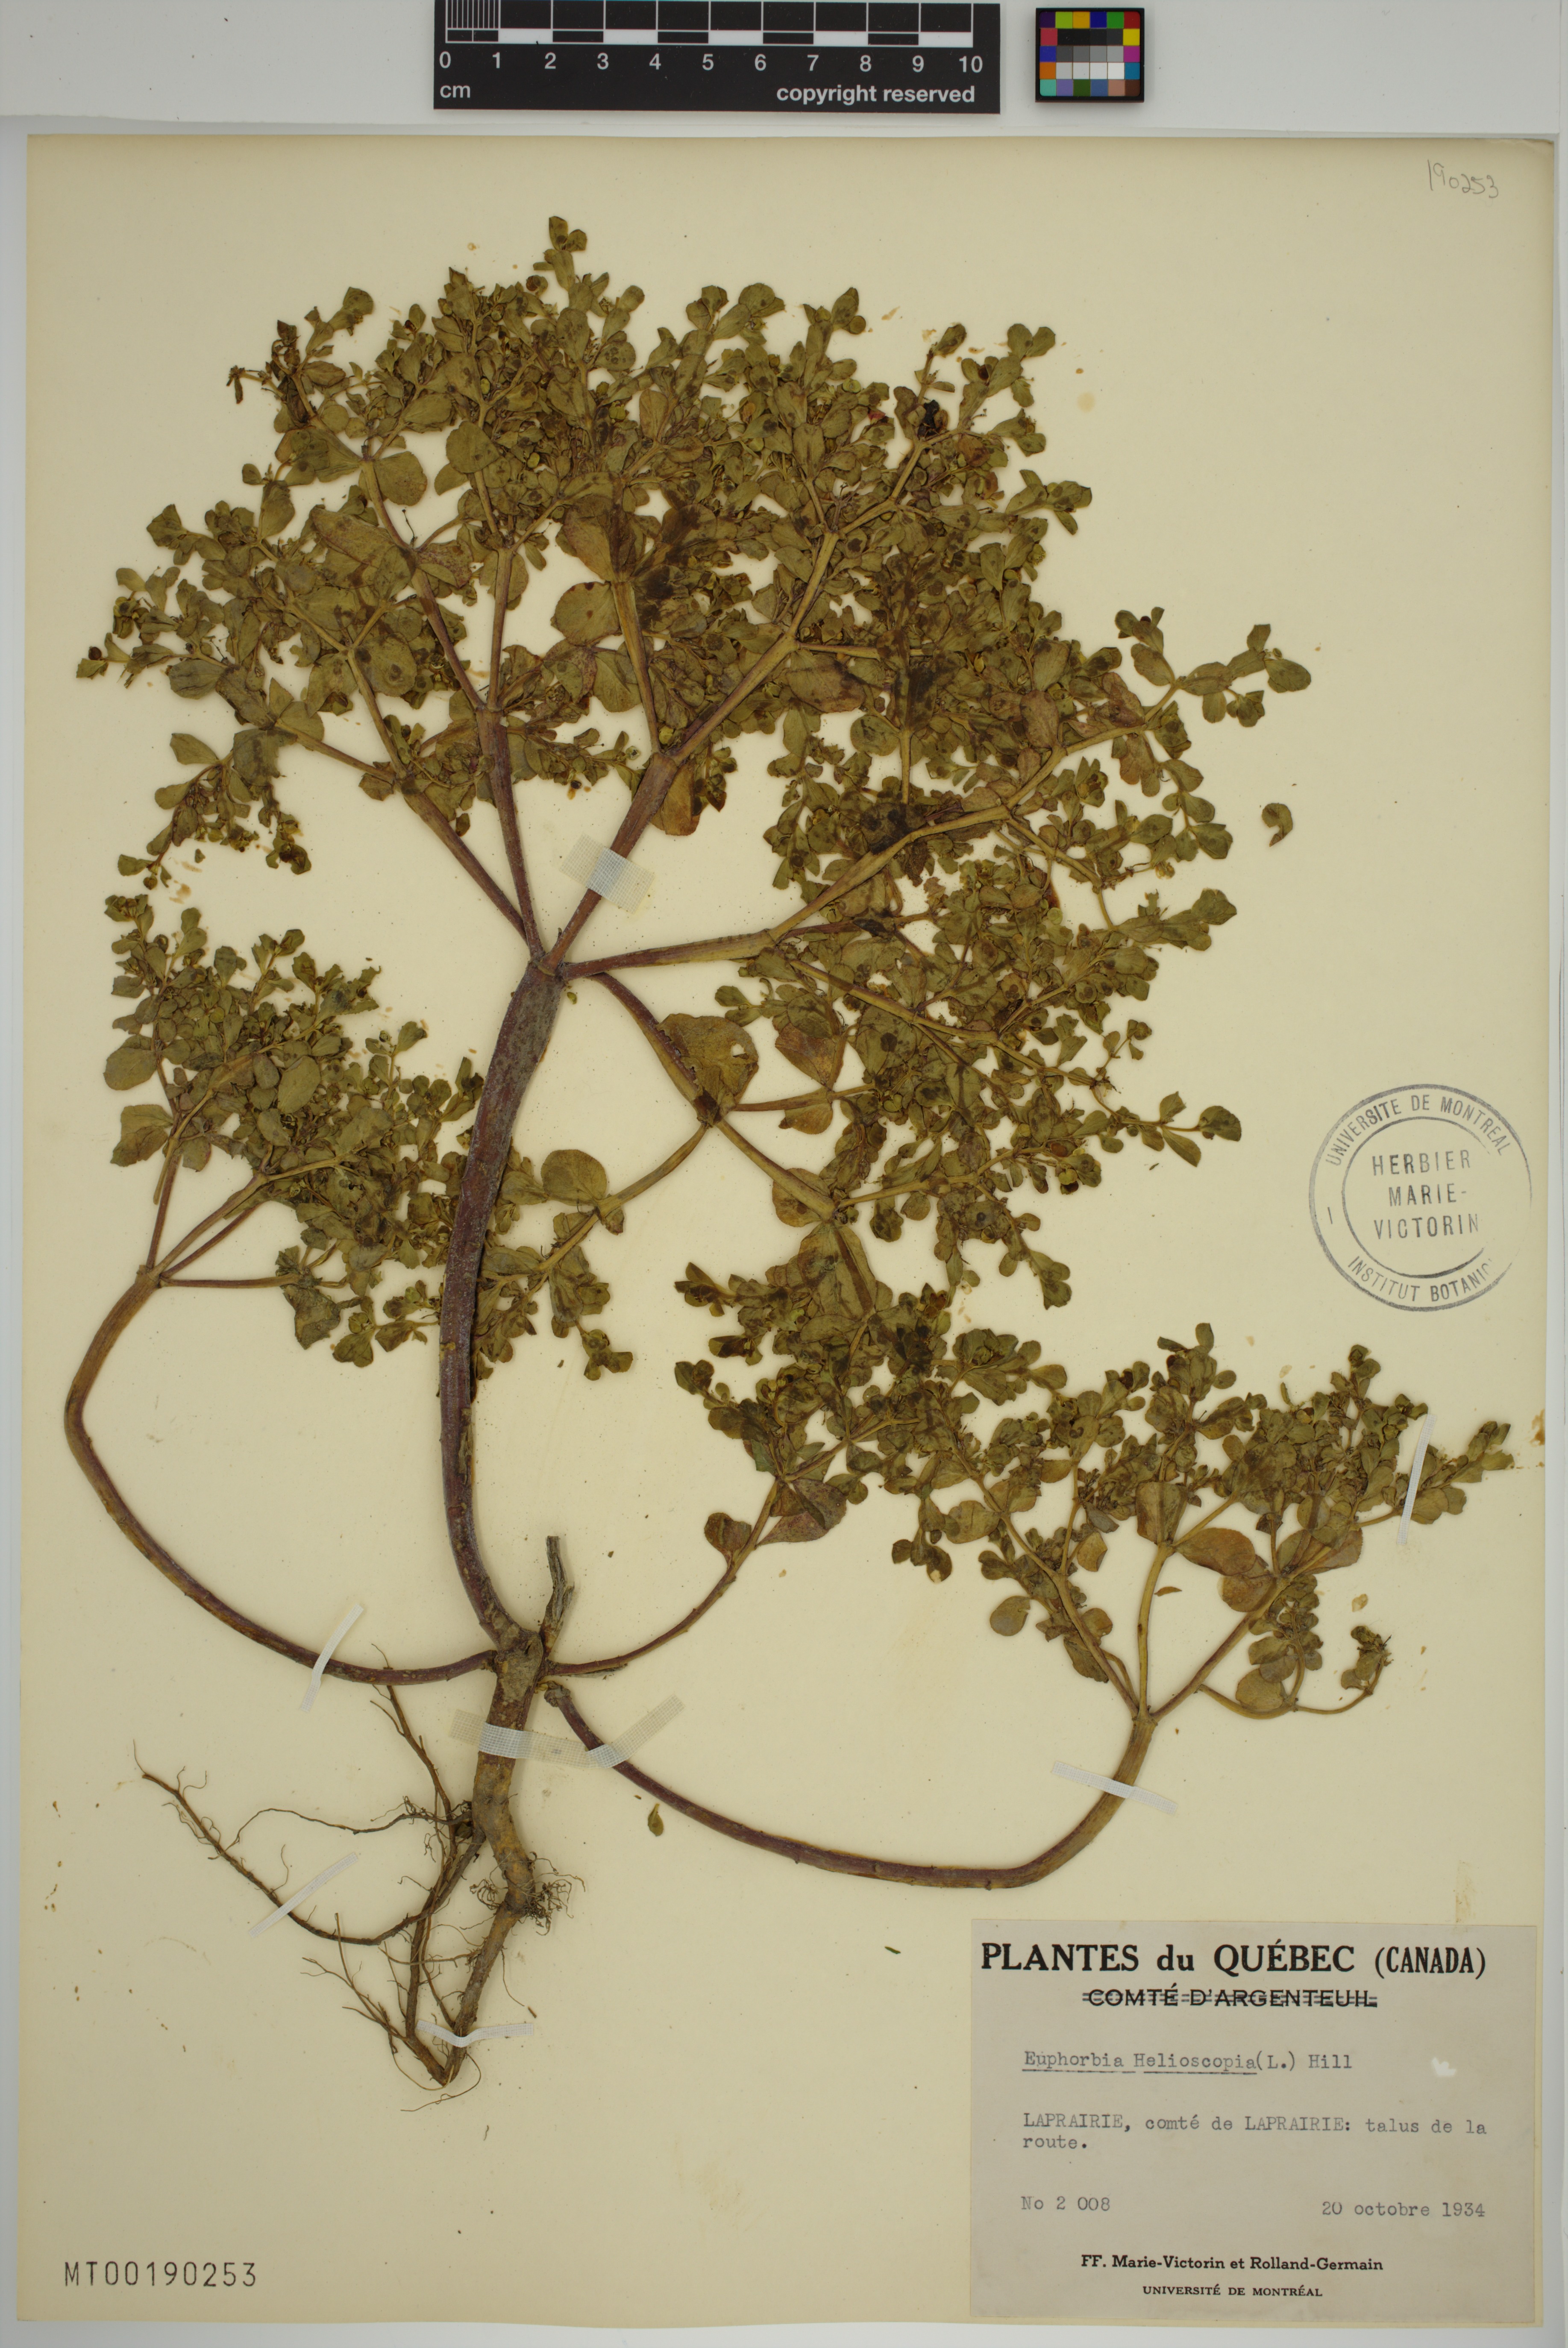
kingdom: Plantae
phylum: Tracheophyta
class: Magnoliopsida
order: Malpighiales
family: Euphorbiaceae
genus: Euphorbia
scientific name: Euphorbia helioscopia
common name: Sun spurge
